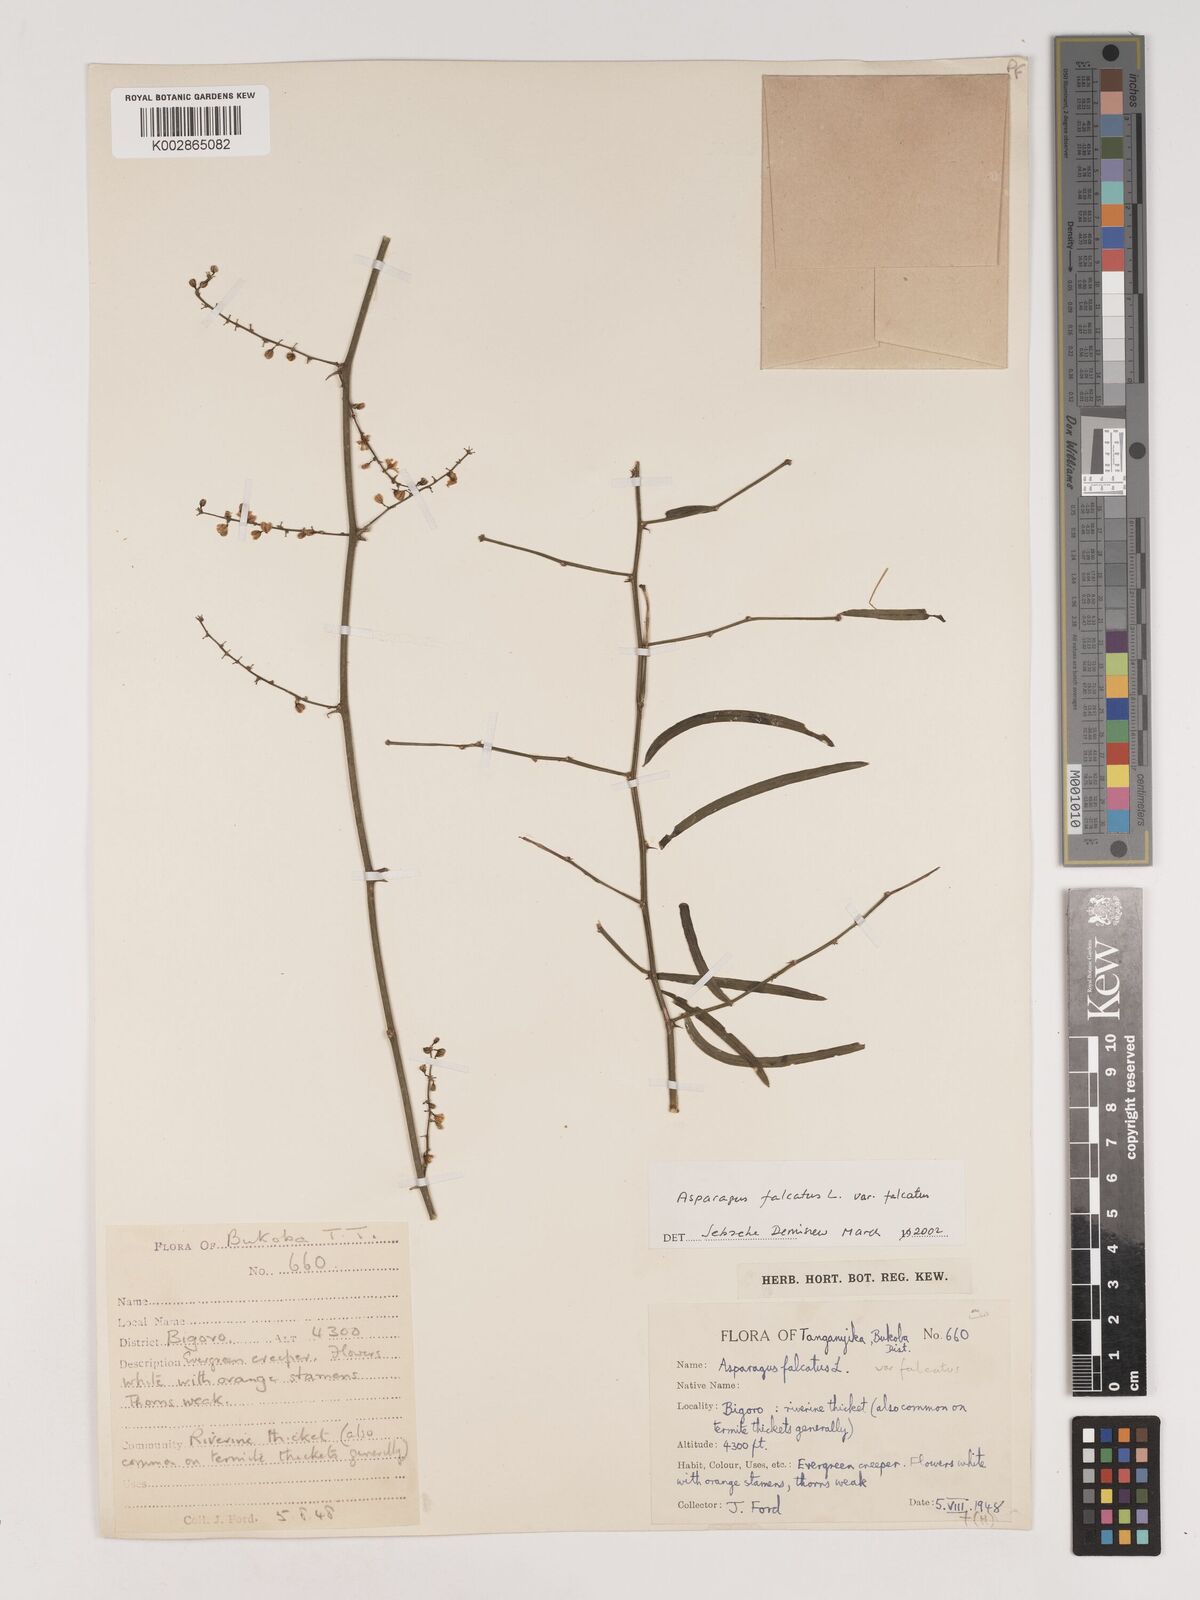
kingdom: Plantae
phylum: Tracheophyta
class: Liliopsida
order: Asparagales
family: Asparagaceae
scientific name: Asparagaceae
